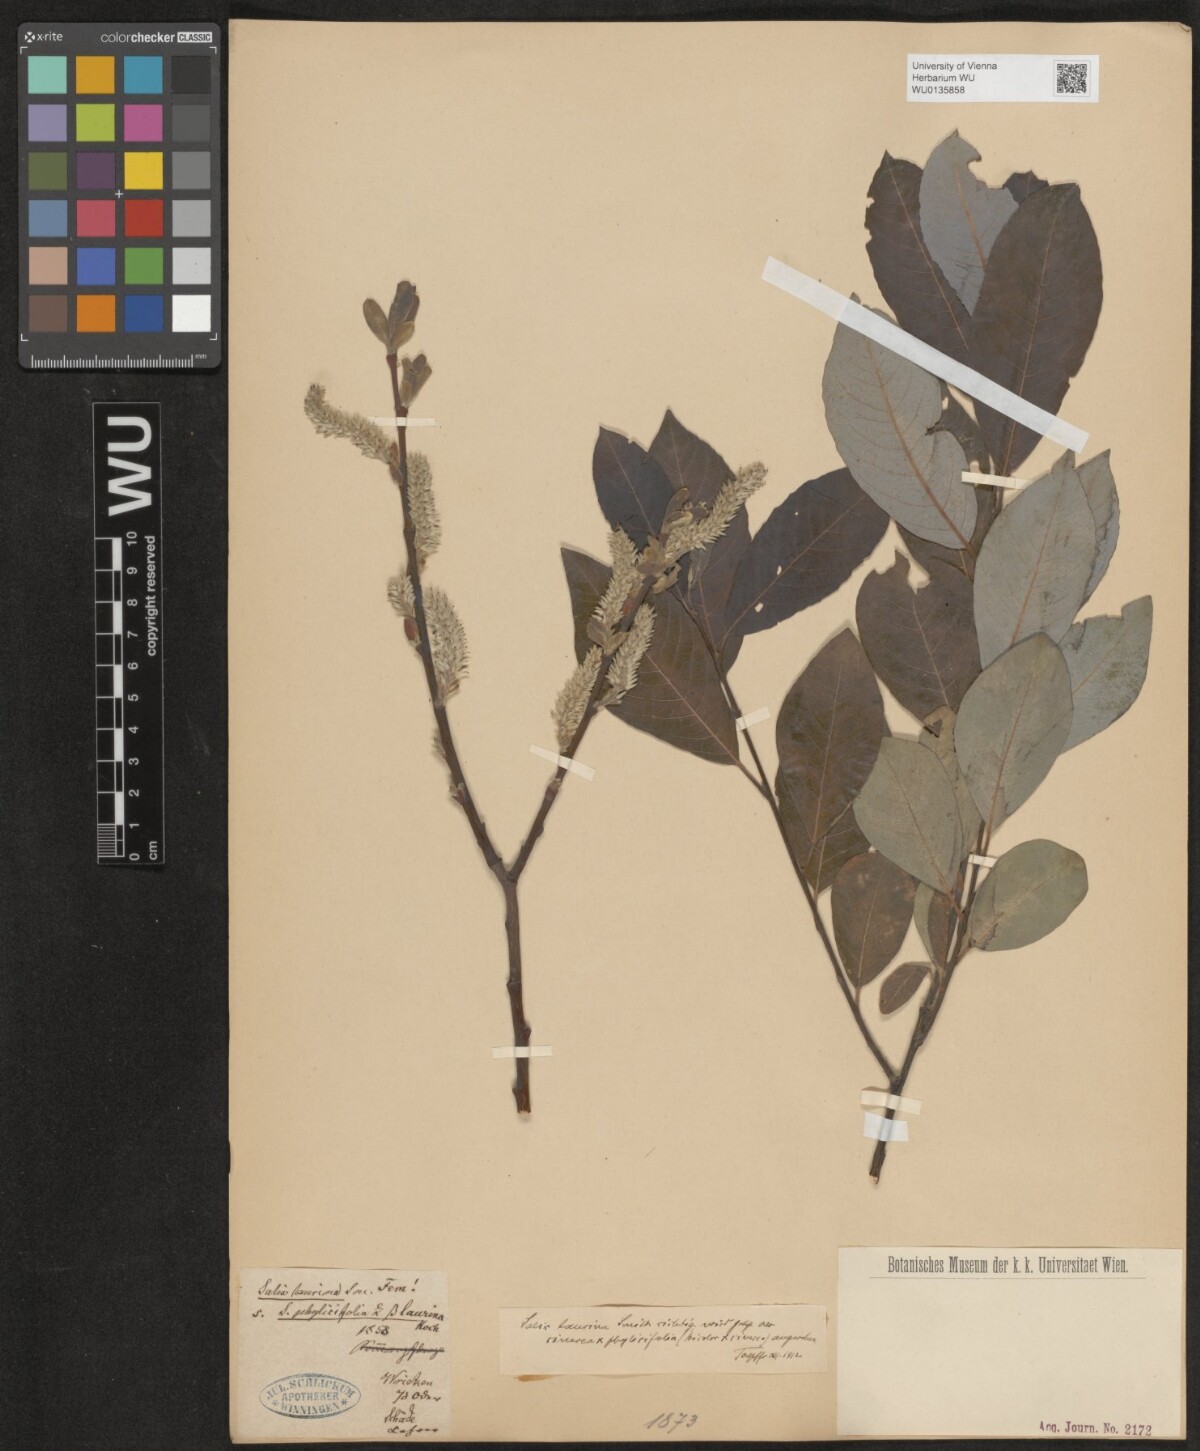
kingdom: Plantae
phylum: Tracheophyta
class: Magnoliopsida
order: Malpighiales
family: Salicaceae
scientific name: Salicaceae
